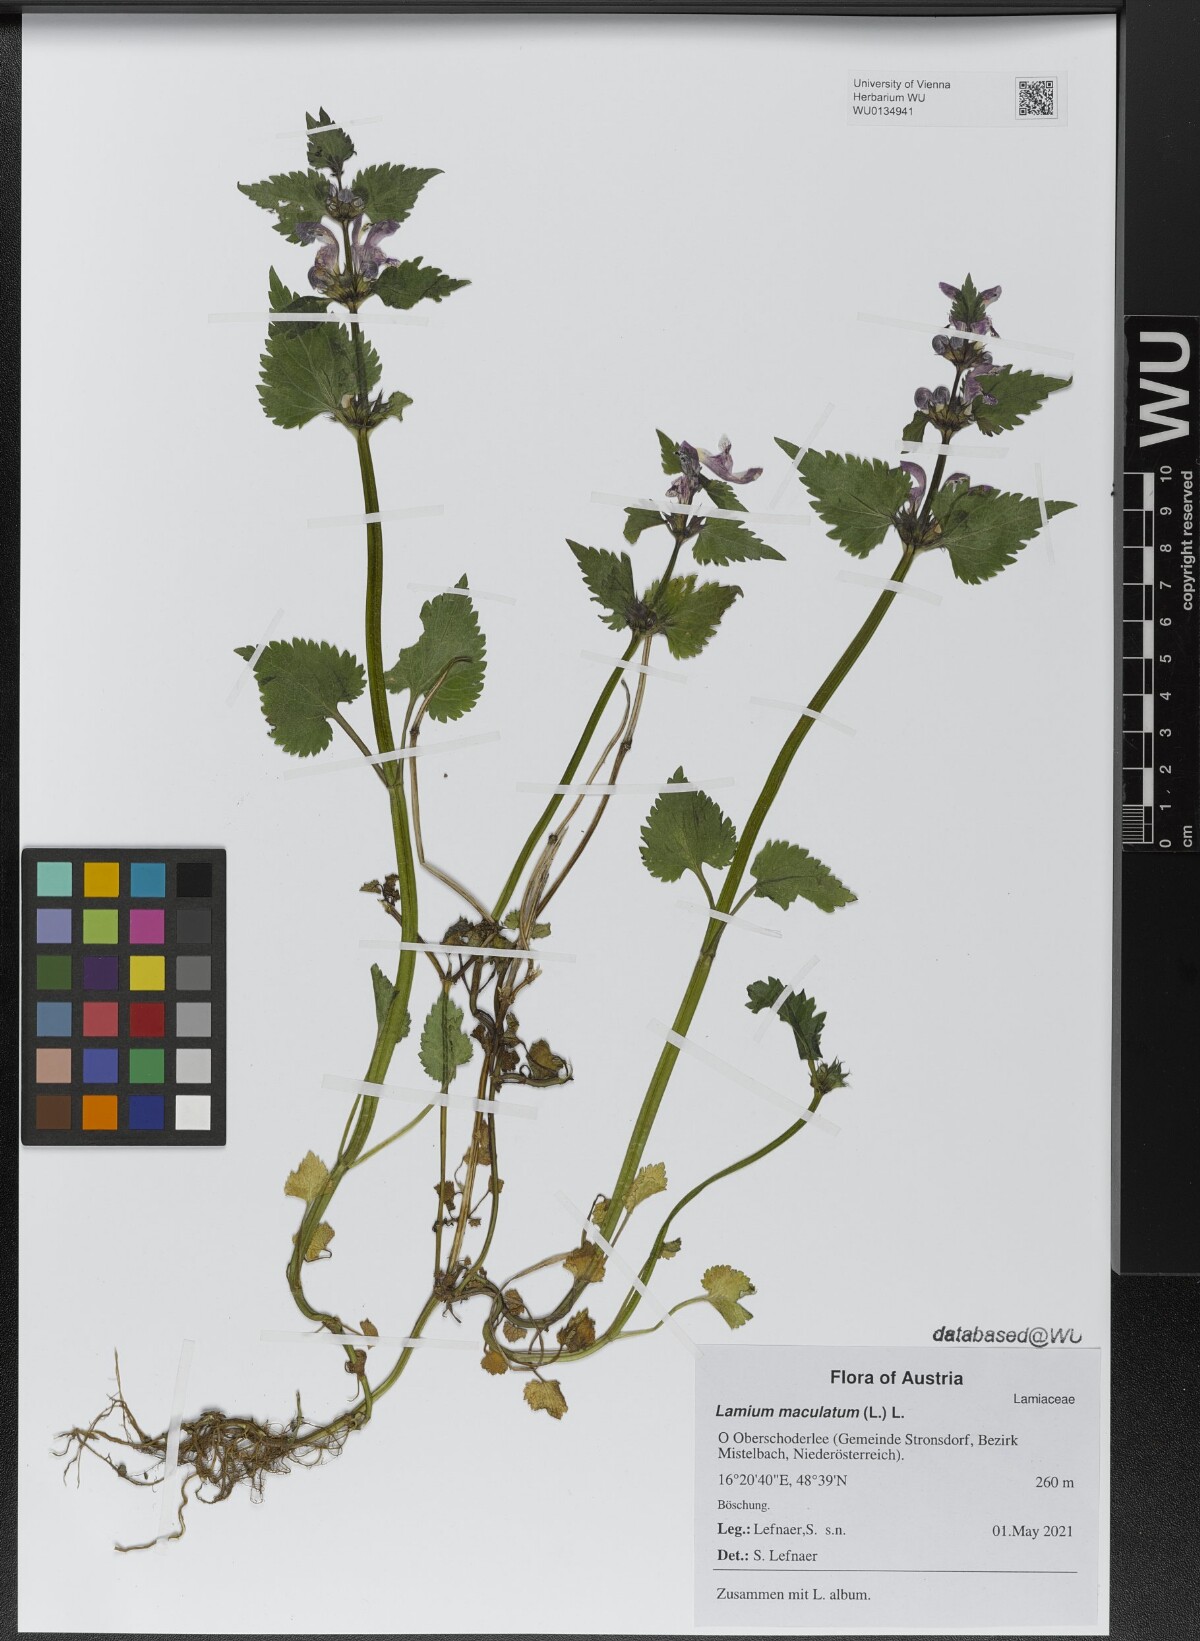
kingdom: Plantae
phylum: Tracheophyta
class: Magnoliopsida
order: Lamiales
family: Lamiaceae
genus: Lamium
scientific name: Lamium maculatum
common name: Spotted dead-nettle
